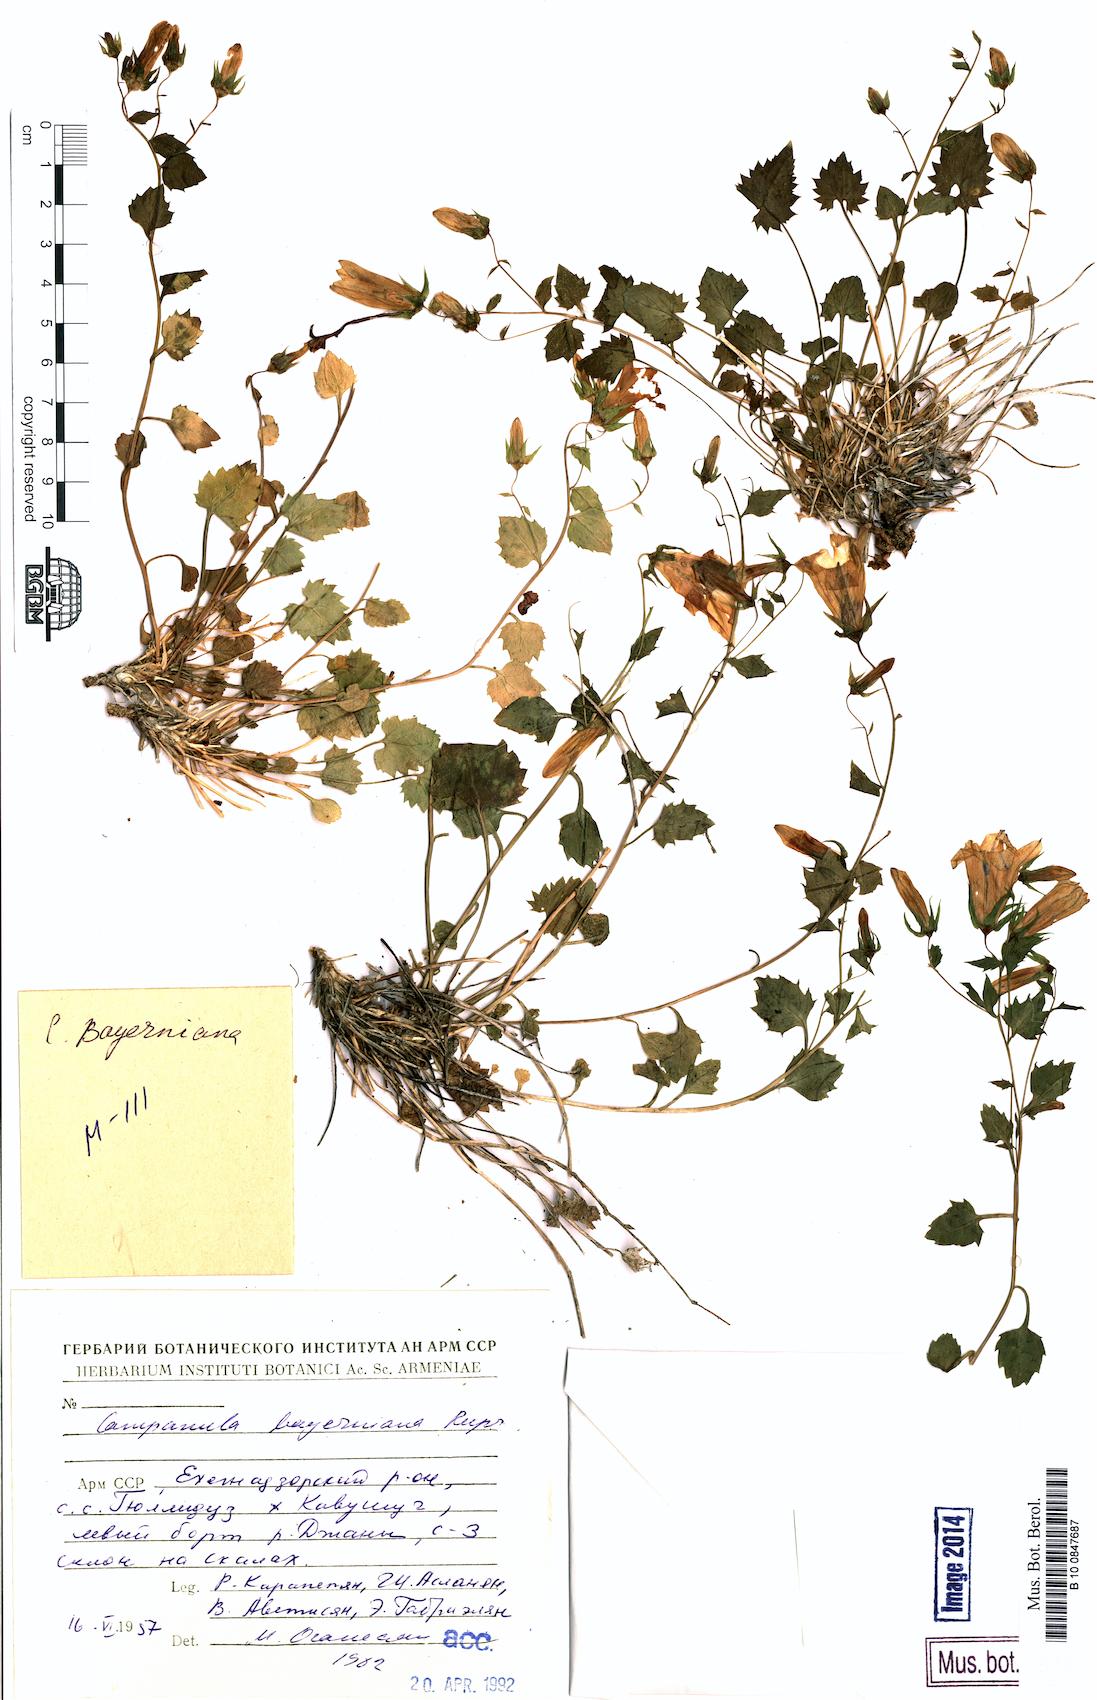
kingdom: Plantae
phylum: Tracheophyta
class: Magnoliopsida
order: Asterales
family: Campanulaceae
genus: Campanula
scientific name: Campanula bayerniana
